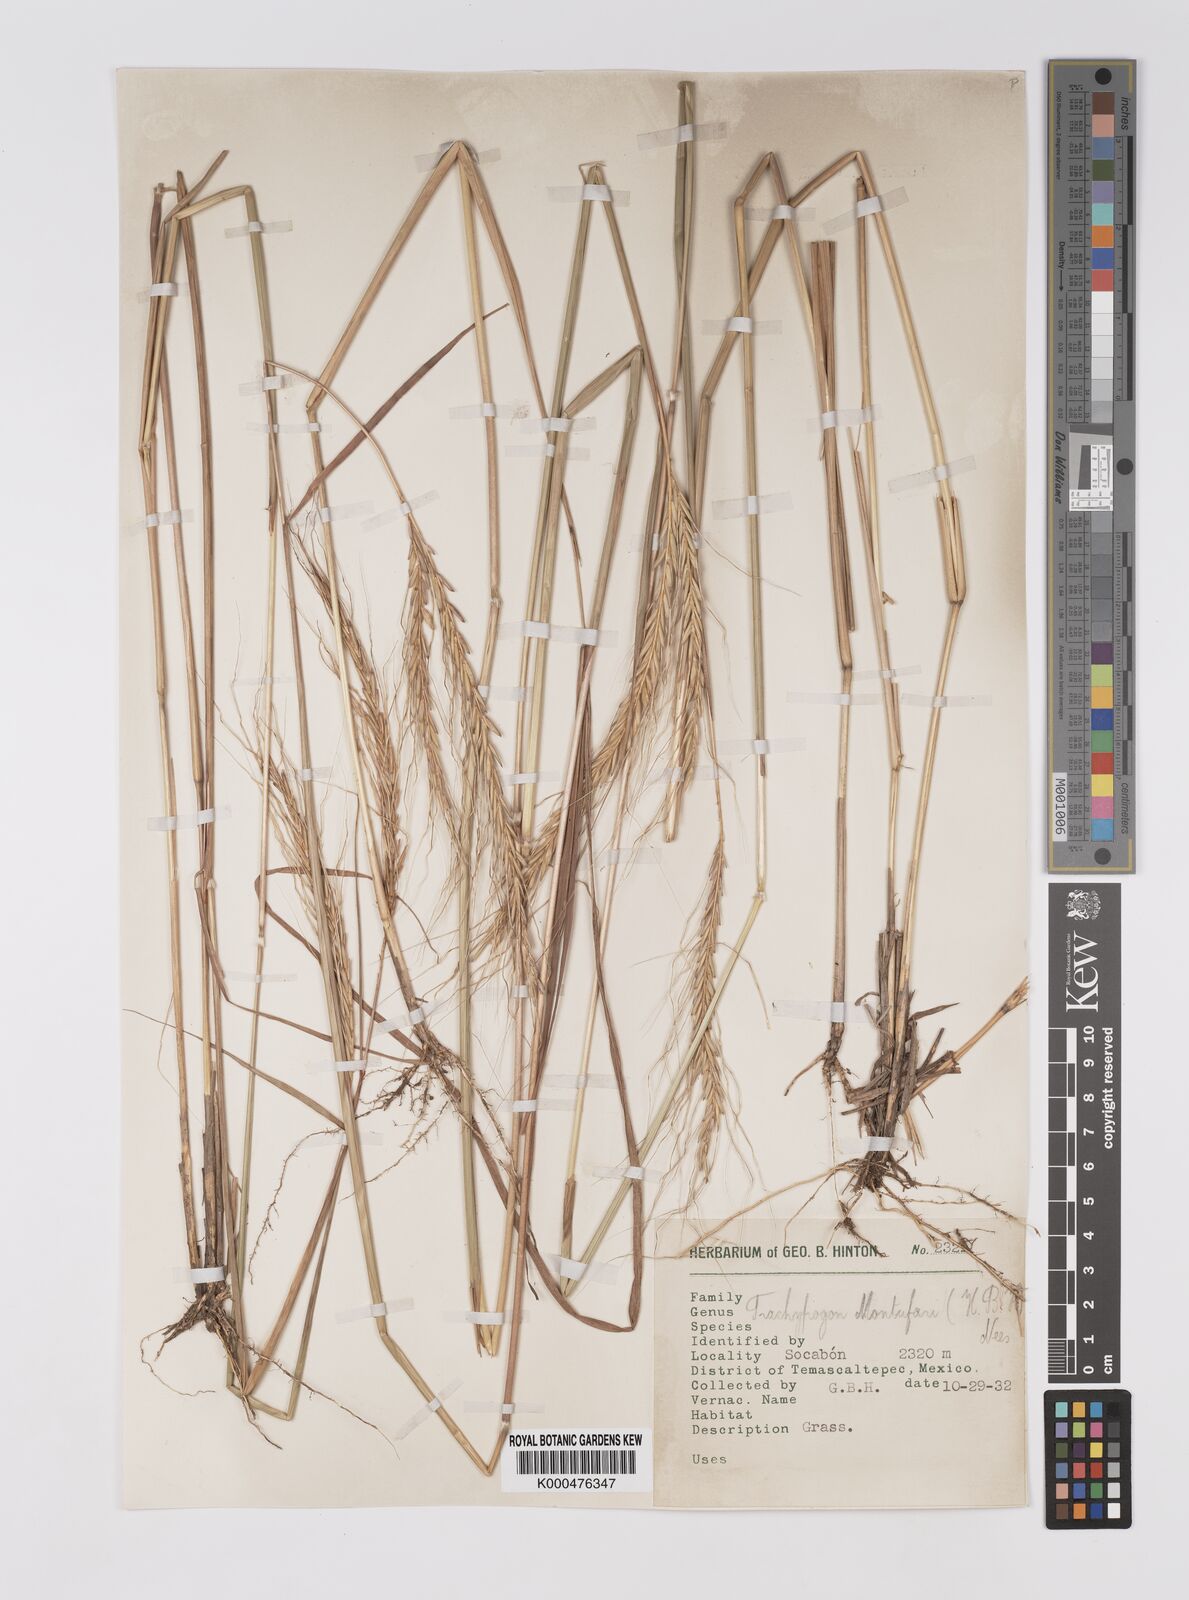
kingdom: Plantae
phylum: Tracheophyta
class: Liliopsida
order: Poales
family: Poaceae
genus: Trachypogon
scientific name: Trachypogon spicatus
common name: Crinkle-awn
